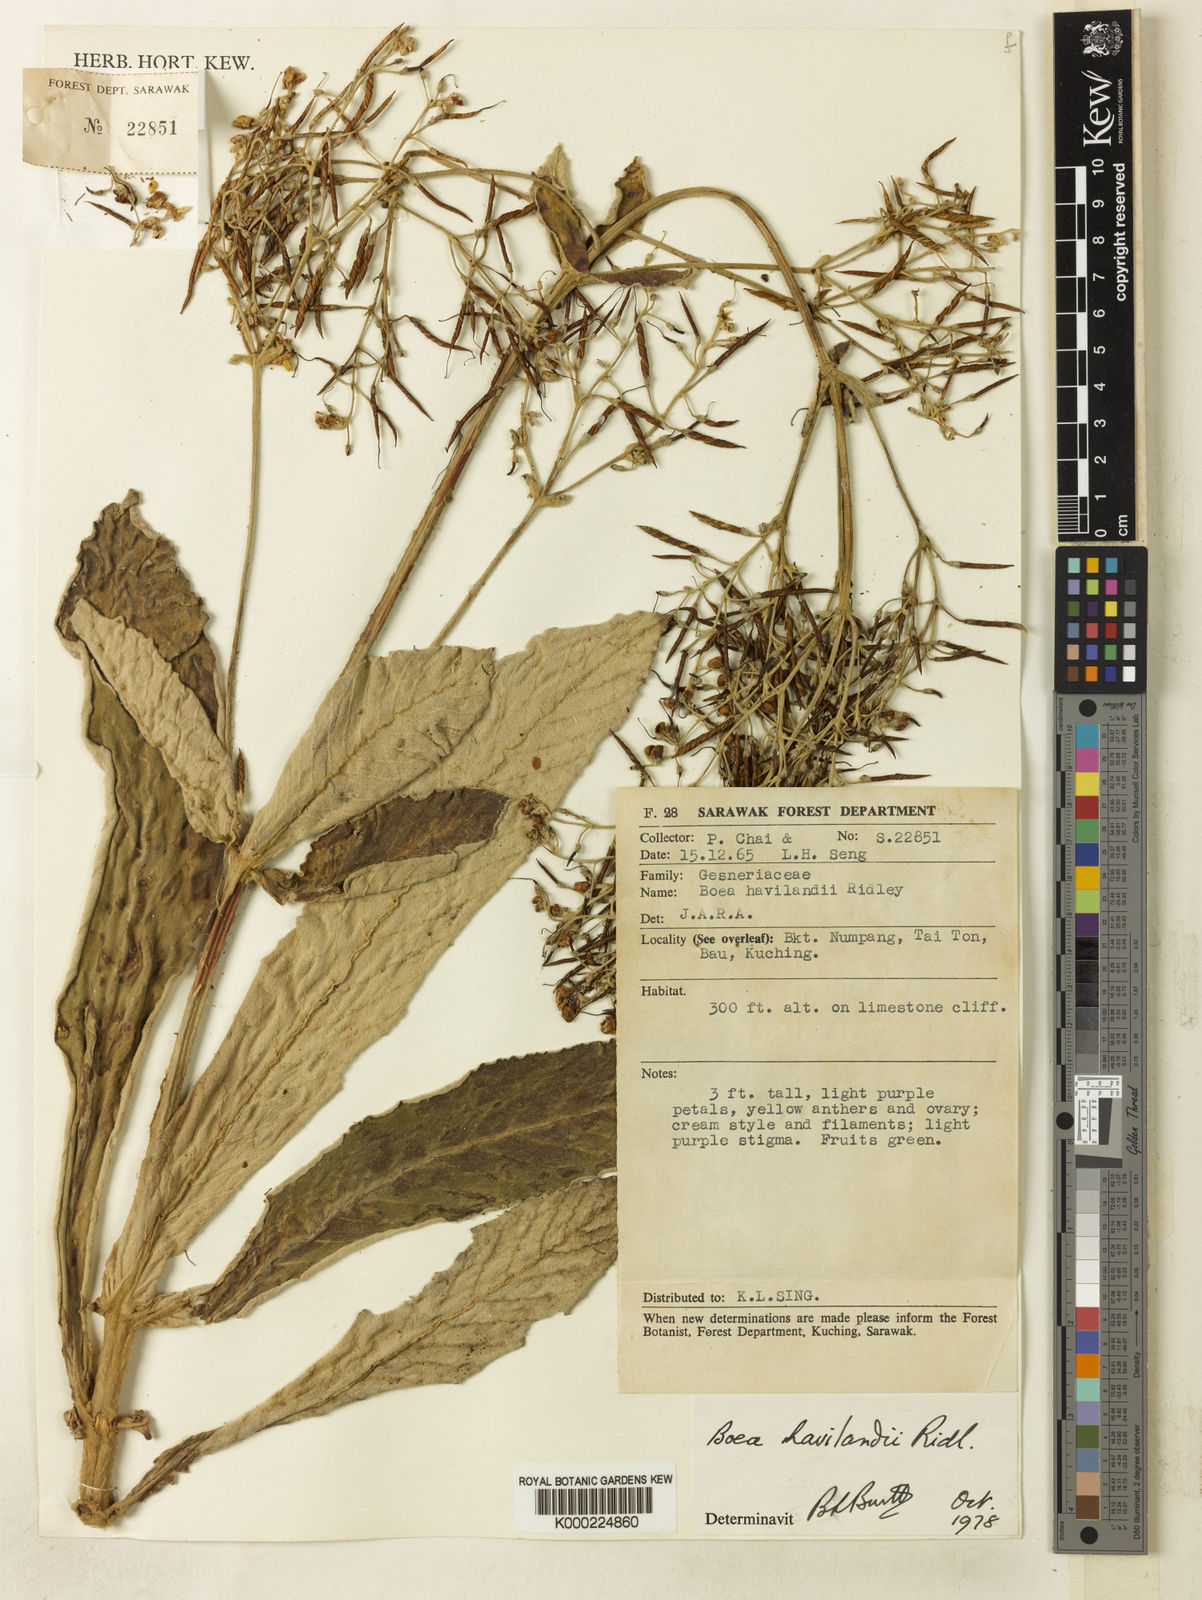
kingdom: Plantae
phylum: Tracheophyta
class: Magnoliopsida
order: Lamiales
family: Gesneriaceae
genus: Paraboea
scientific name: Paraboea havilandii
